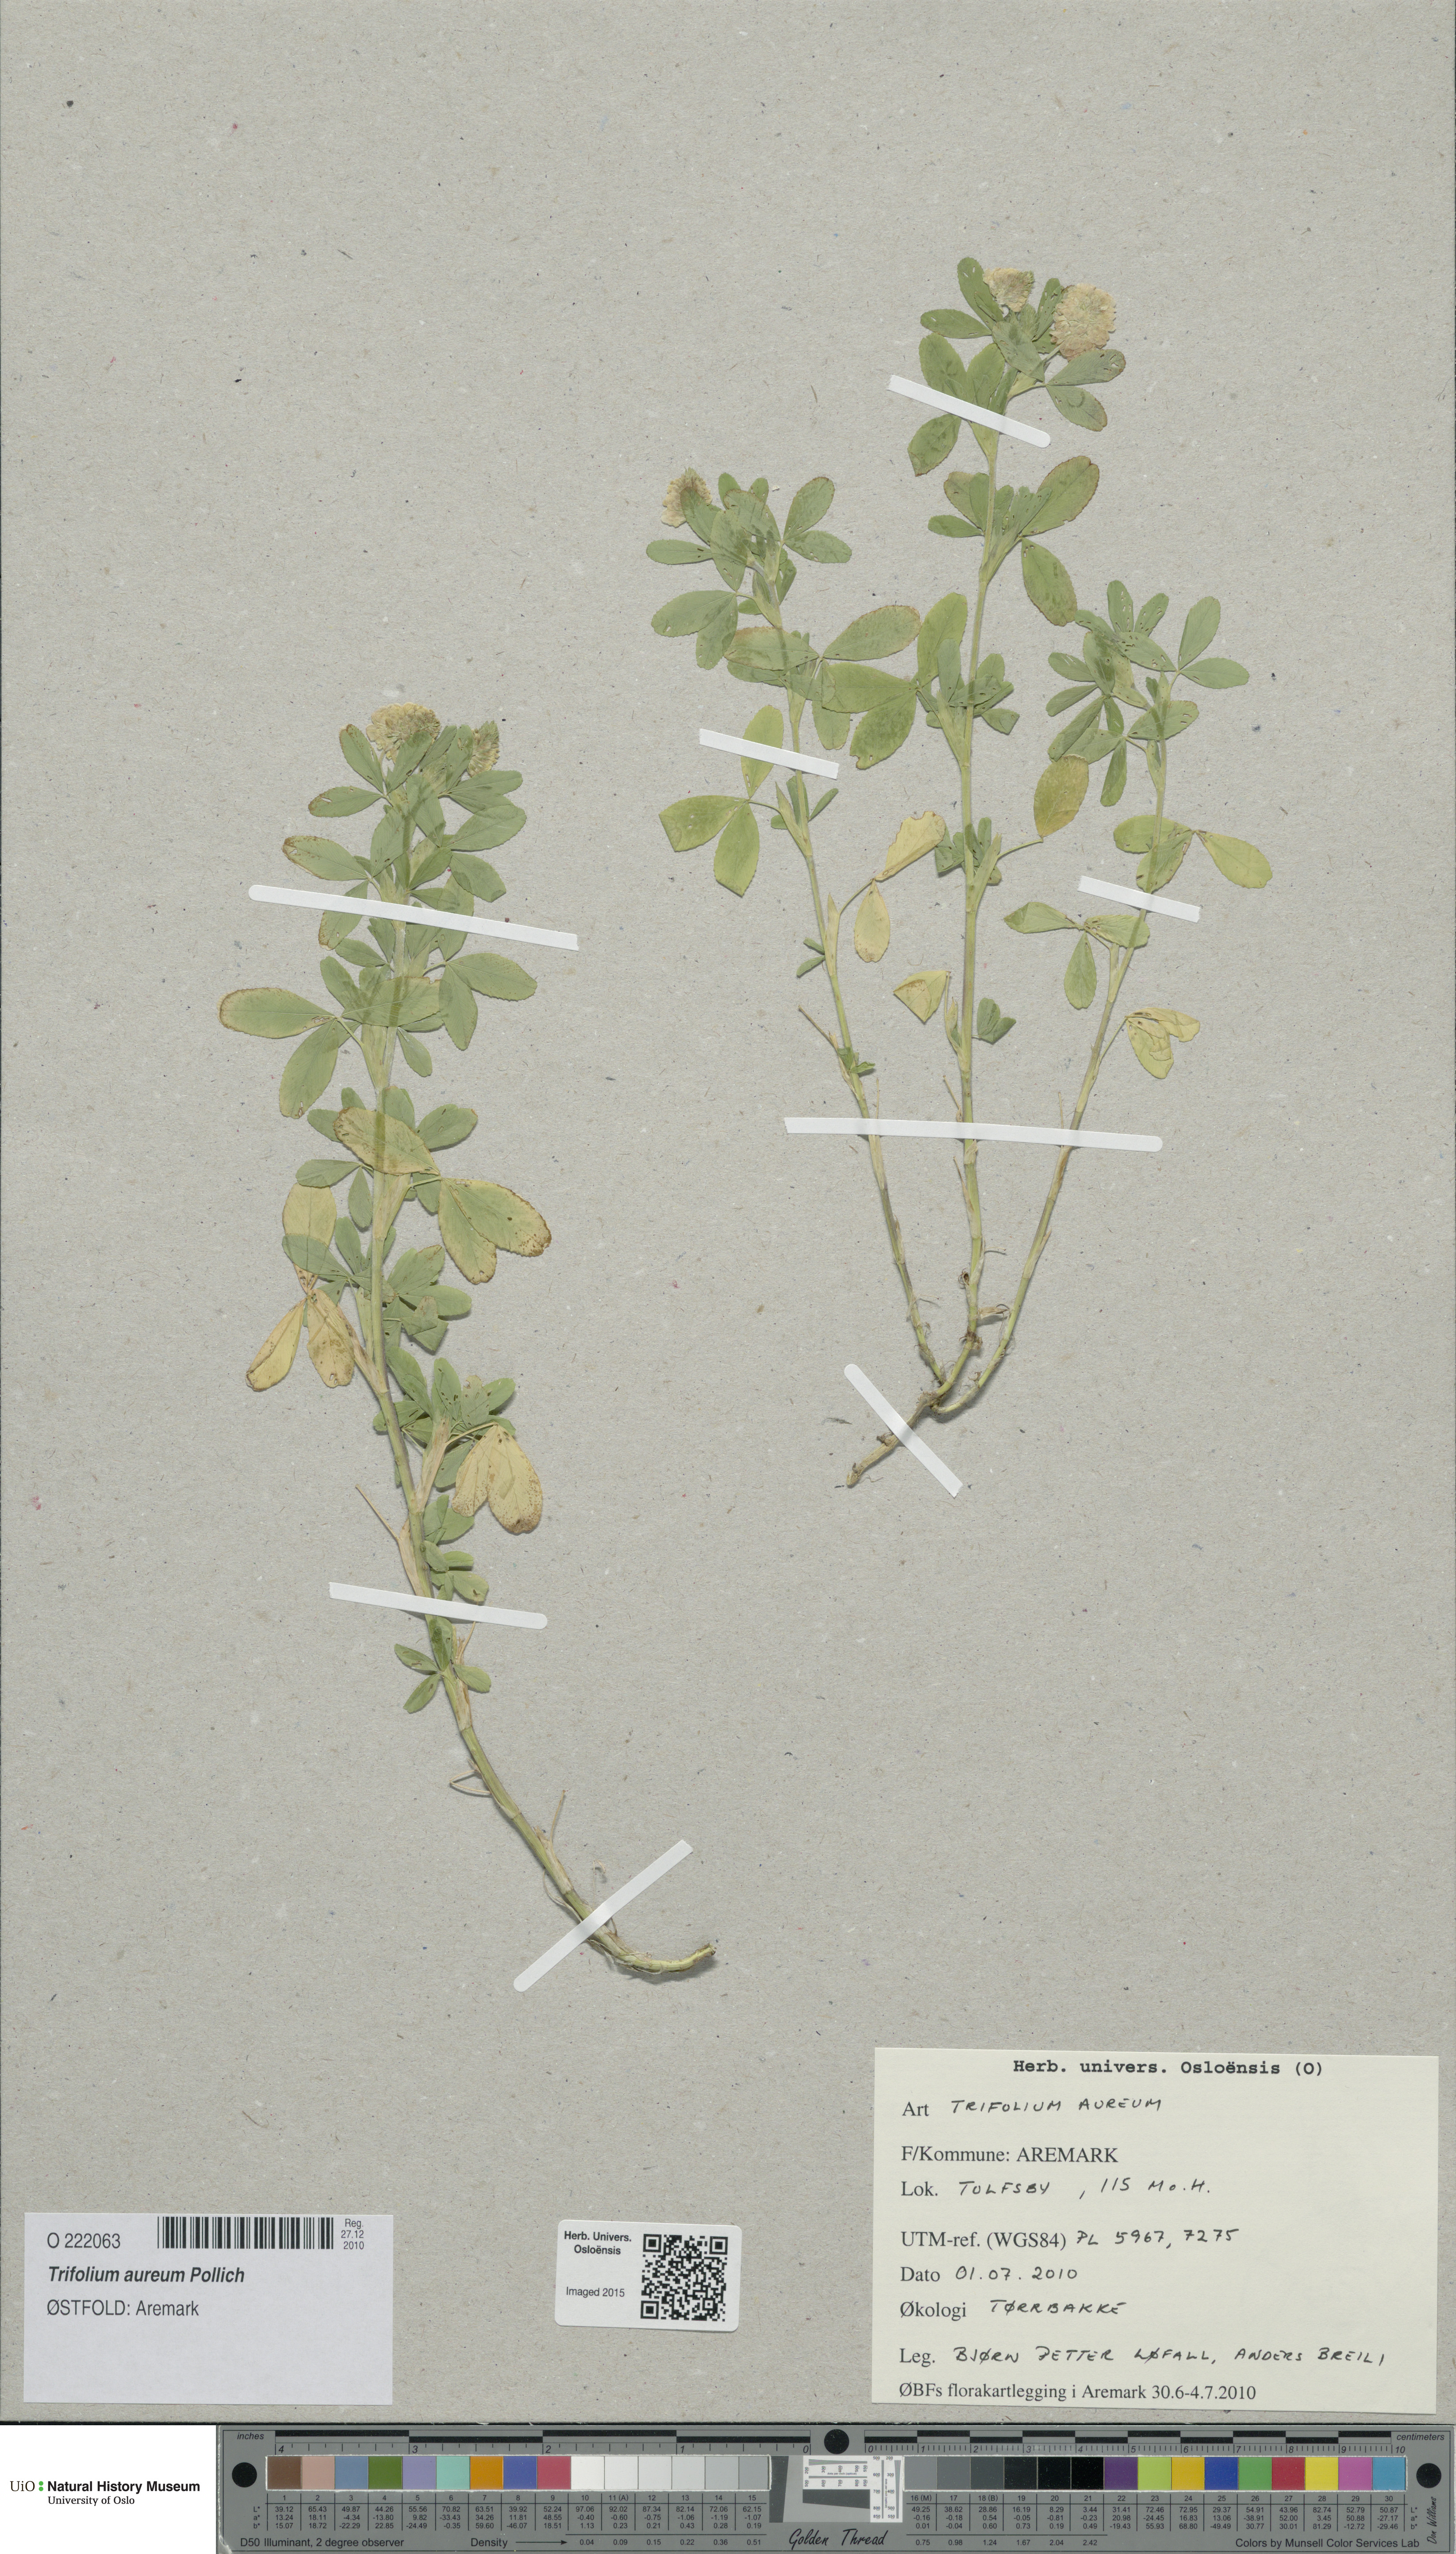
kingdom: Plantae
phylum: Tracheophyta
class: Magnoliopsida
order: Fabales
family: Fabaceae
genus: Trifolium
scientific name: Trifolium aureum
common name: Golden clover
